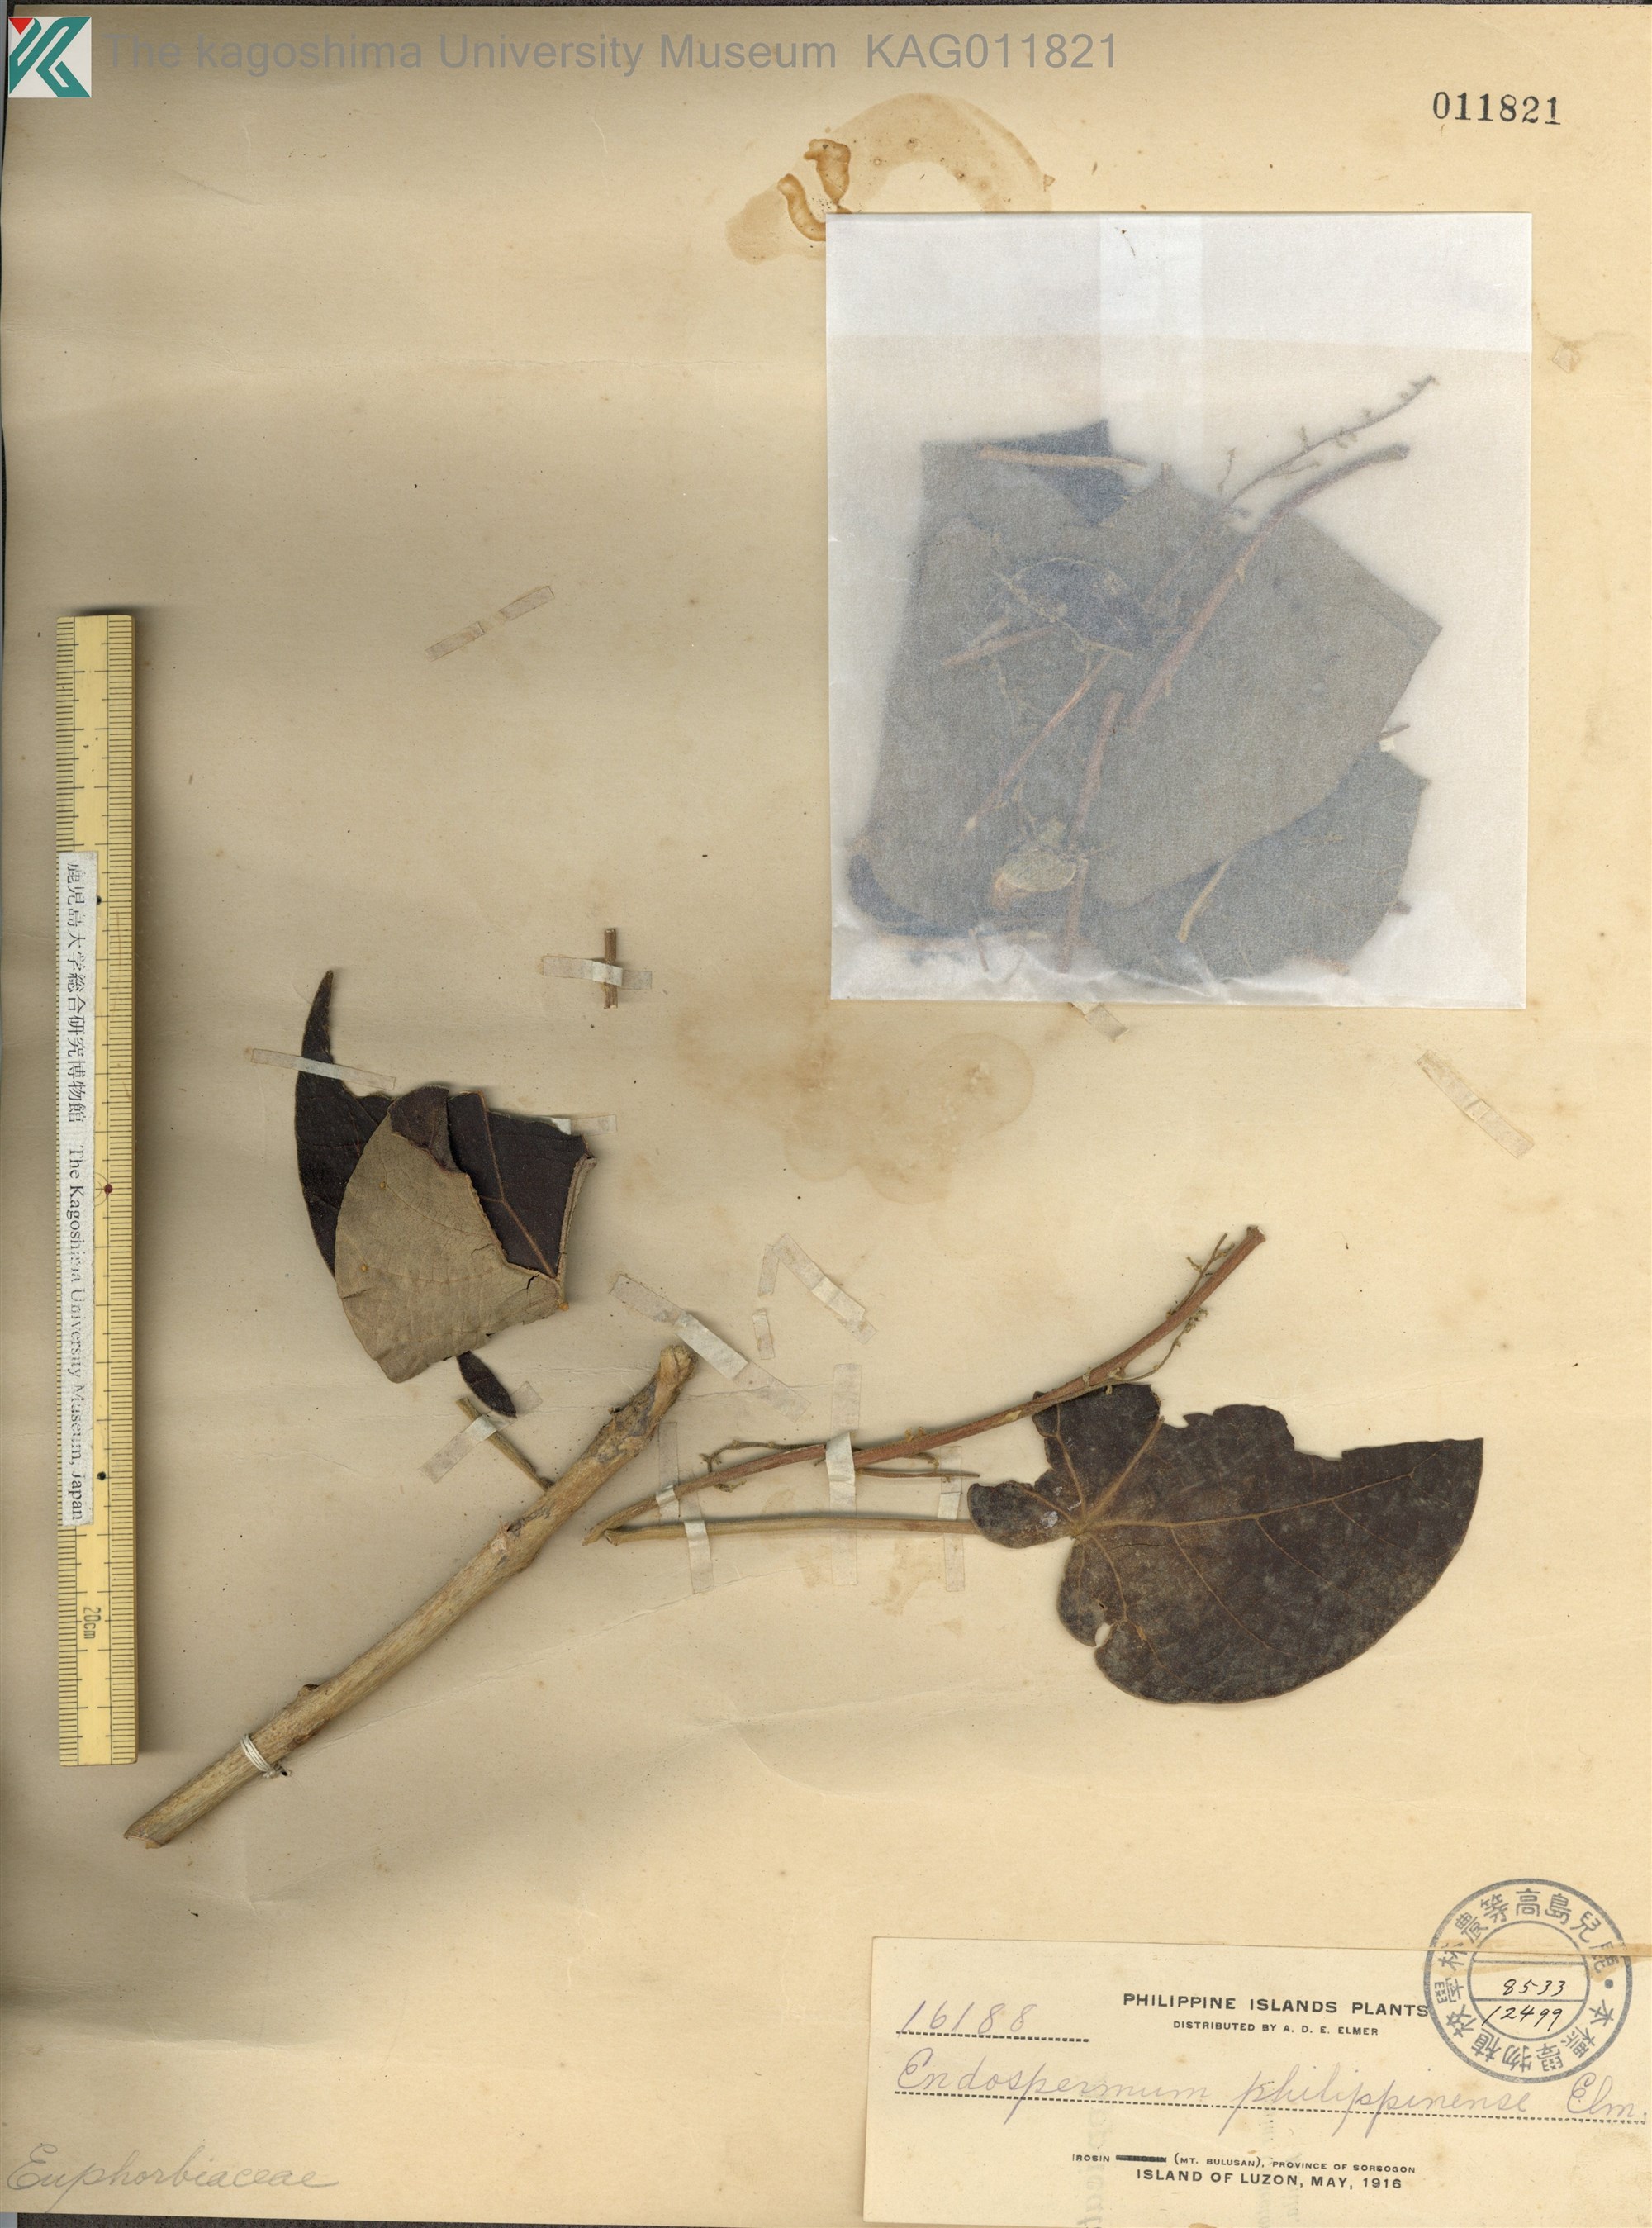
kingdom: Plantae
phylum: Tracheophyta
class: Magnoliopsida
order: Malpighiales
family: Euphorbiaceae
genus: Endospermum
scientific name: Endospermum peltatum
